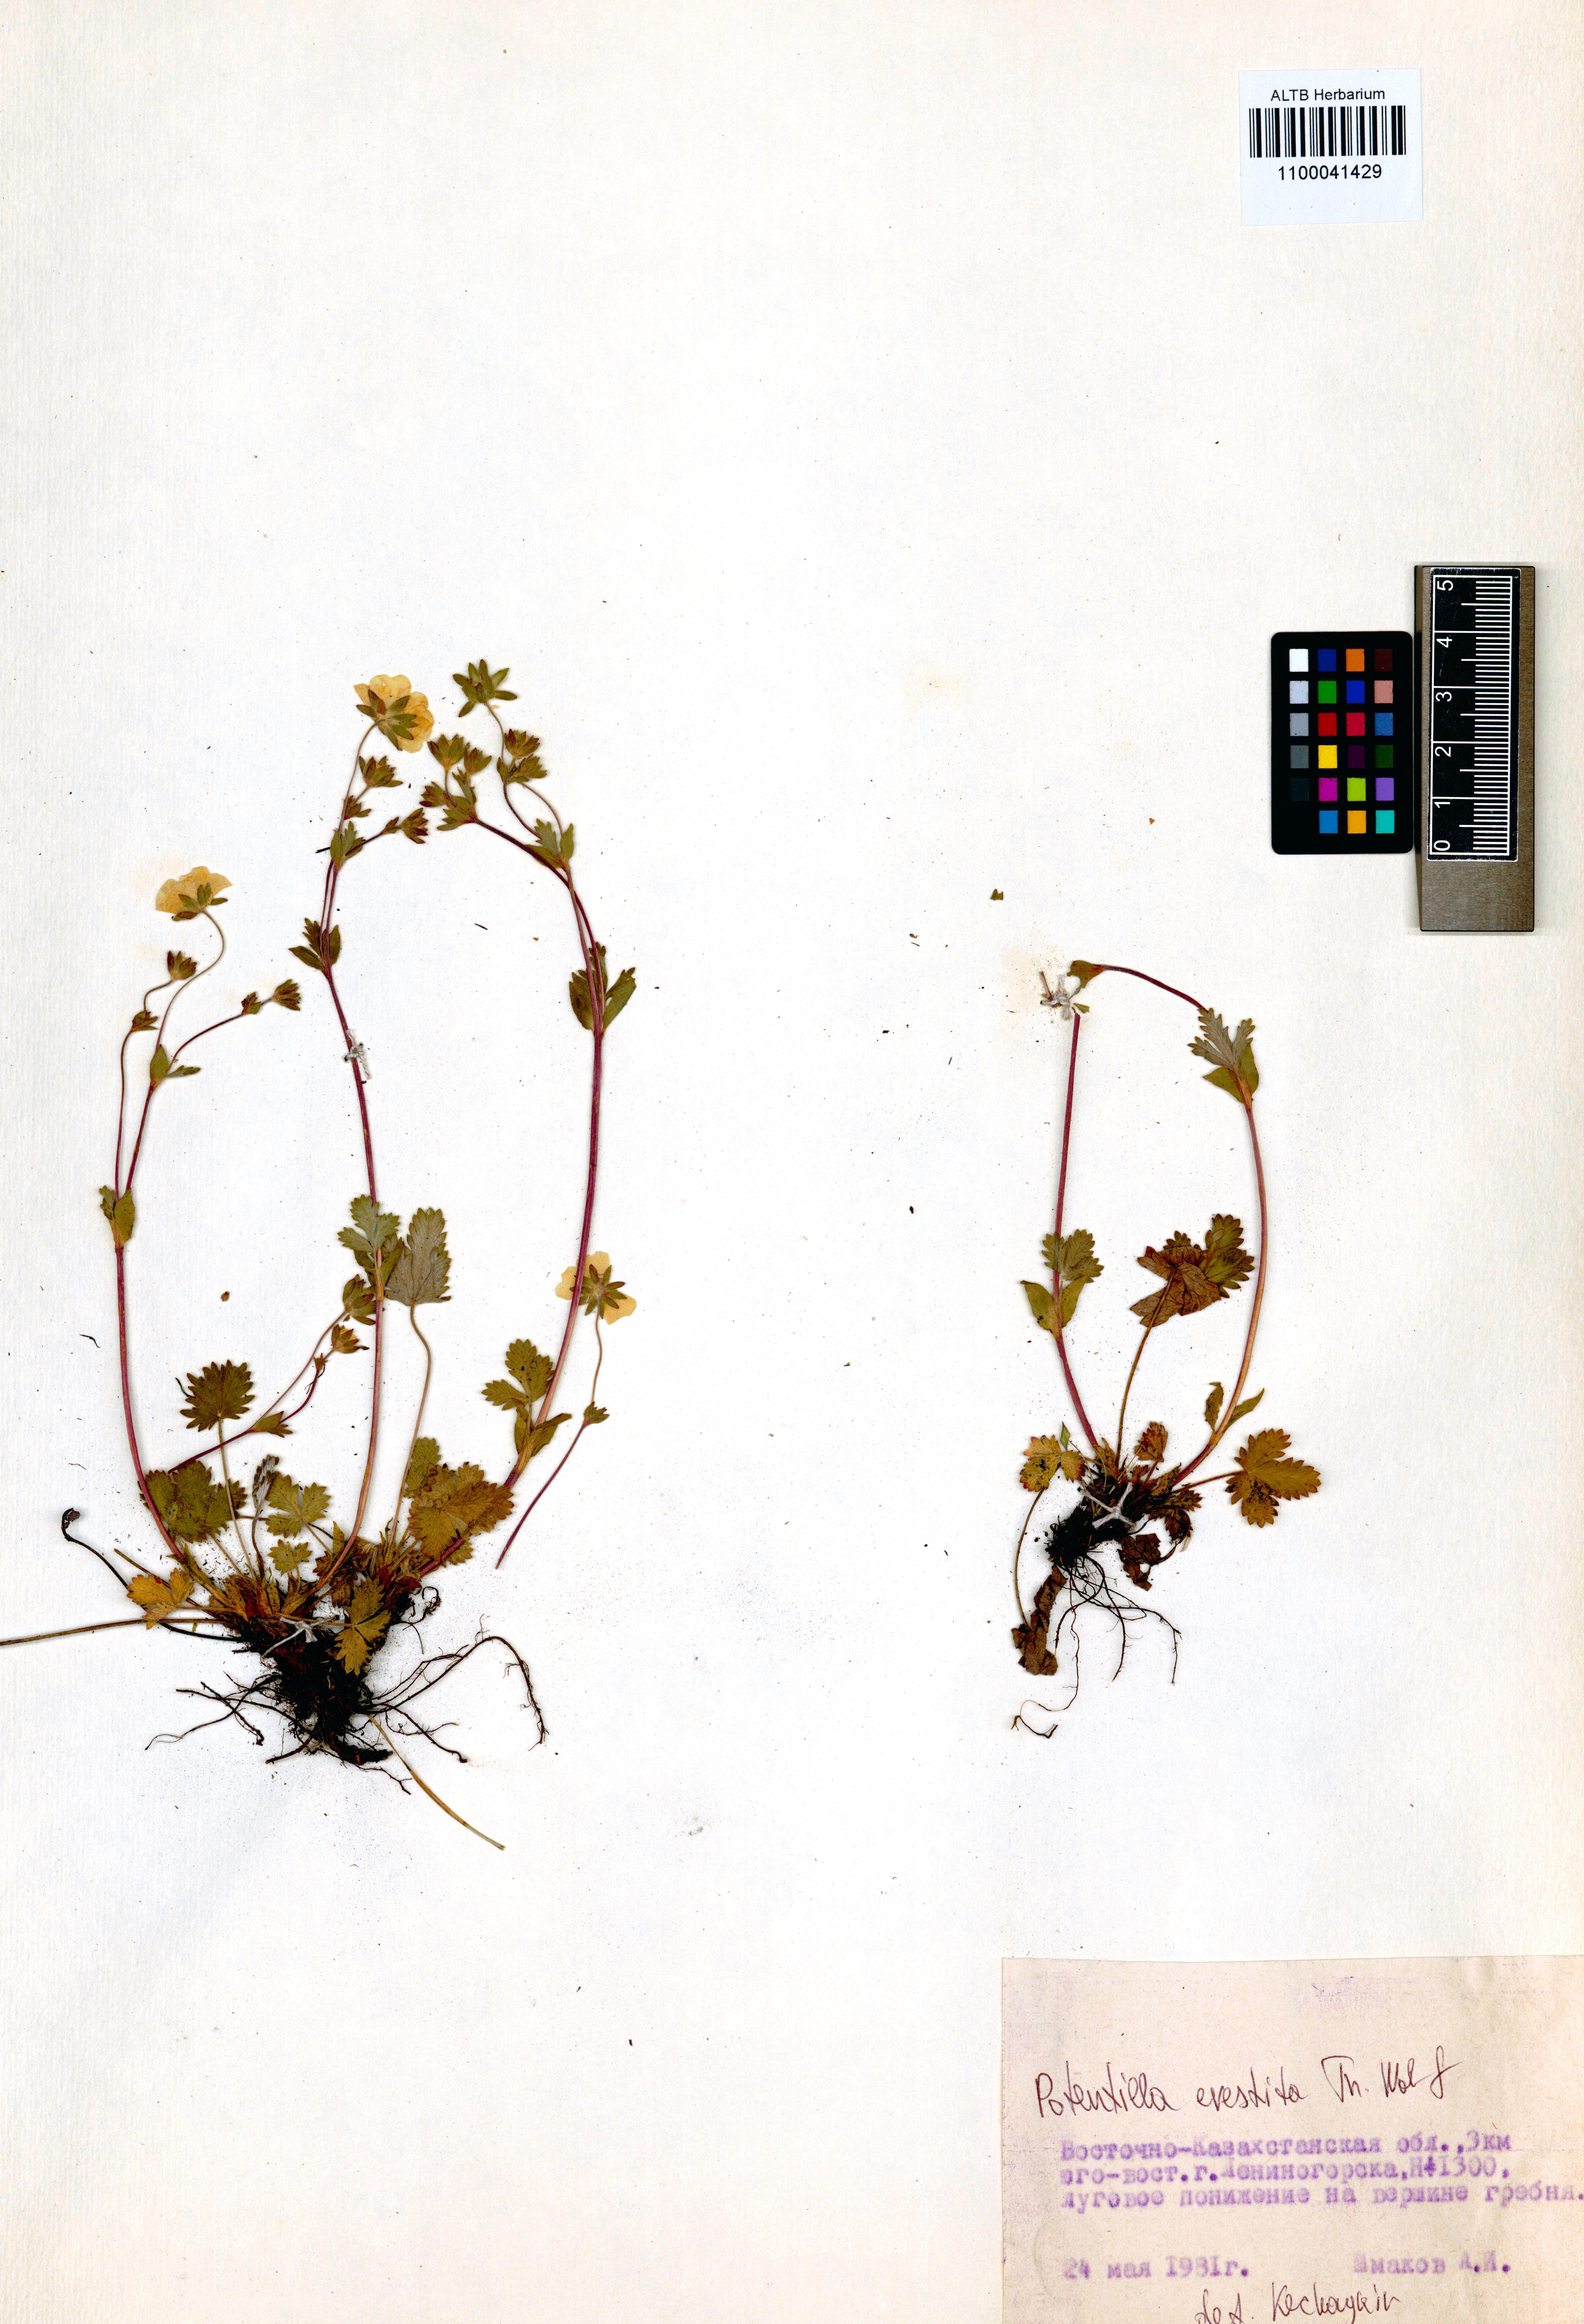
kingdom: Plantae
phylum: Tracheophyta
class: Magnoliopsida
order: Rosales
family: Rosaceae
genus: Potentilla
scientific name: Potentilla evestita
